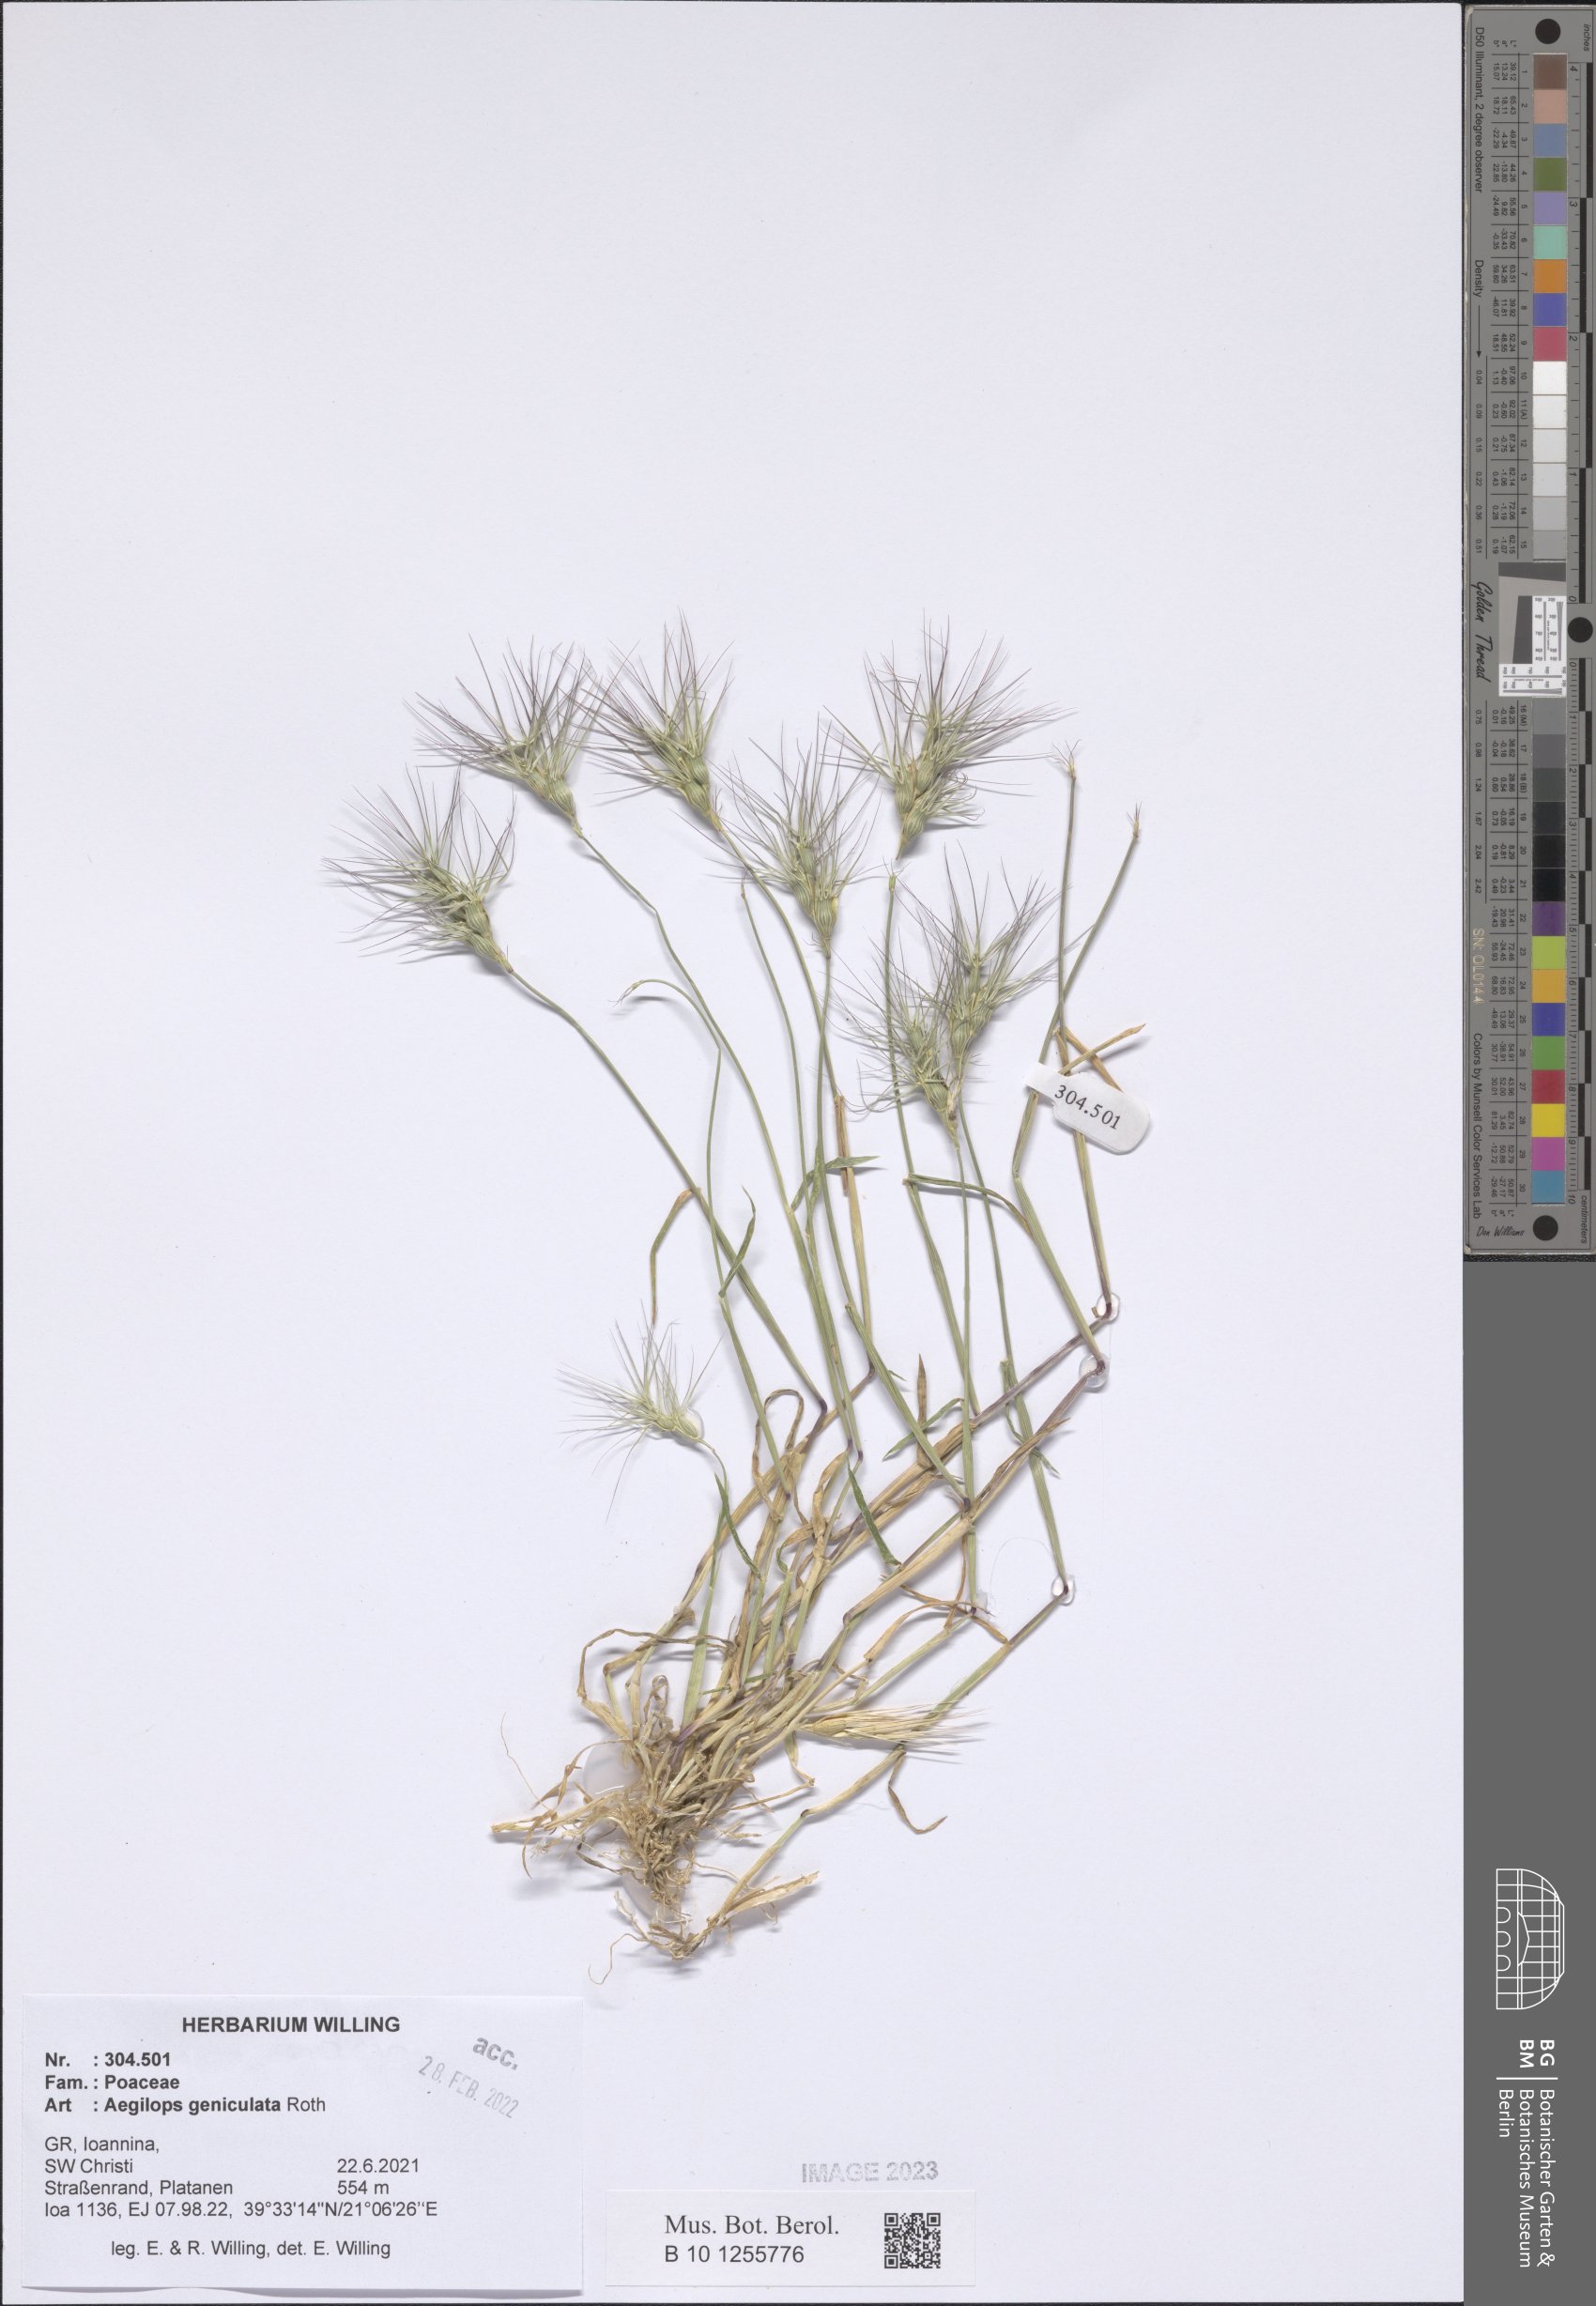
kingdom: Plantae
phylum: Tracheophyta
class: Liliopsida
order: Poales
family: Poaceae
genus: Aegilops
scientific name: Aegilops geniculata
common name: Ovate goat grass
